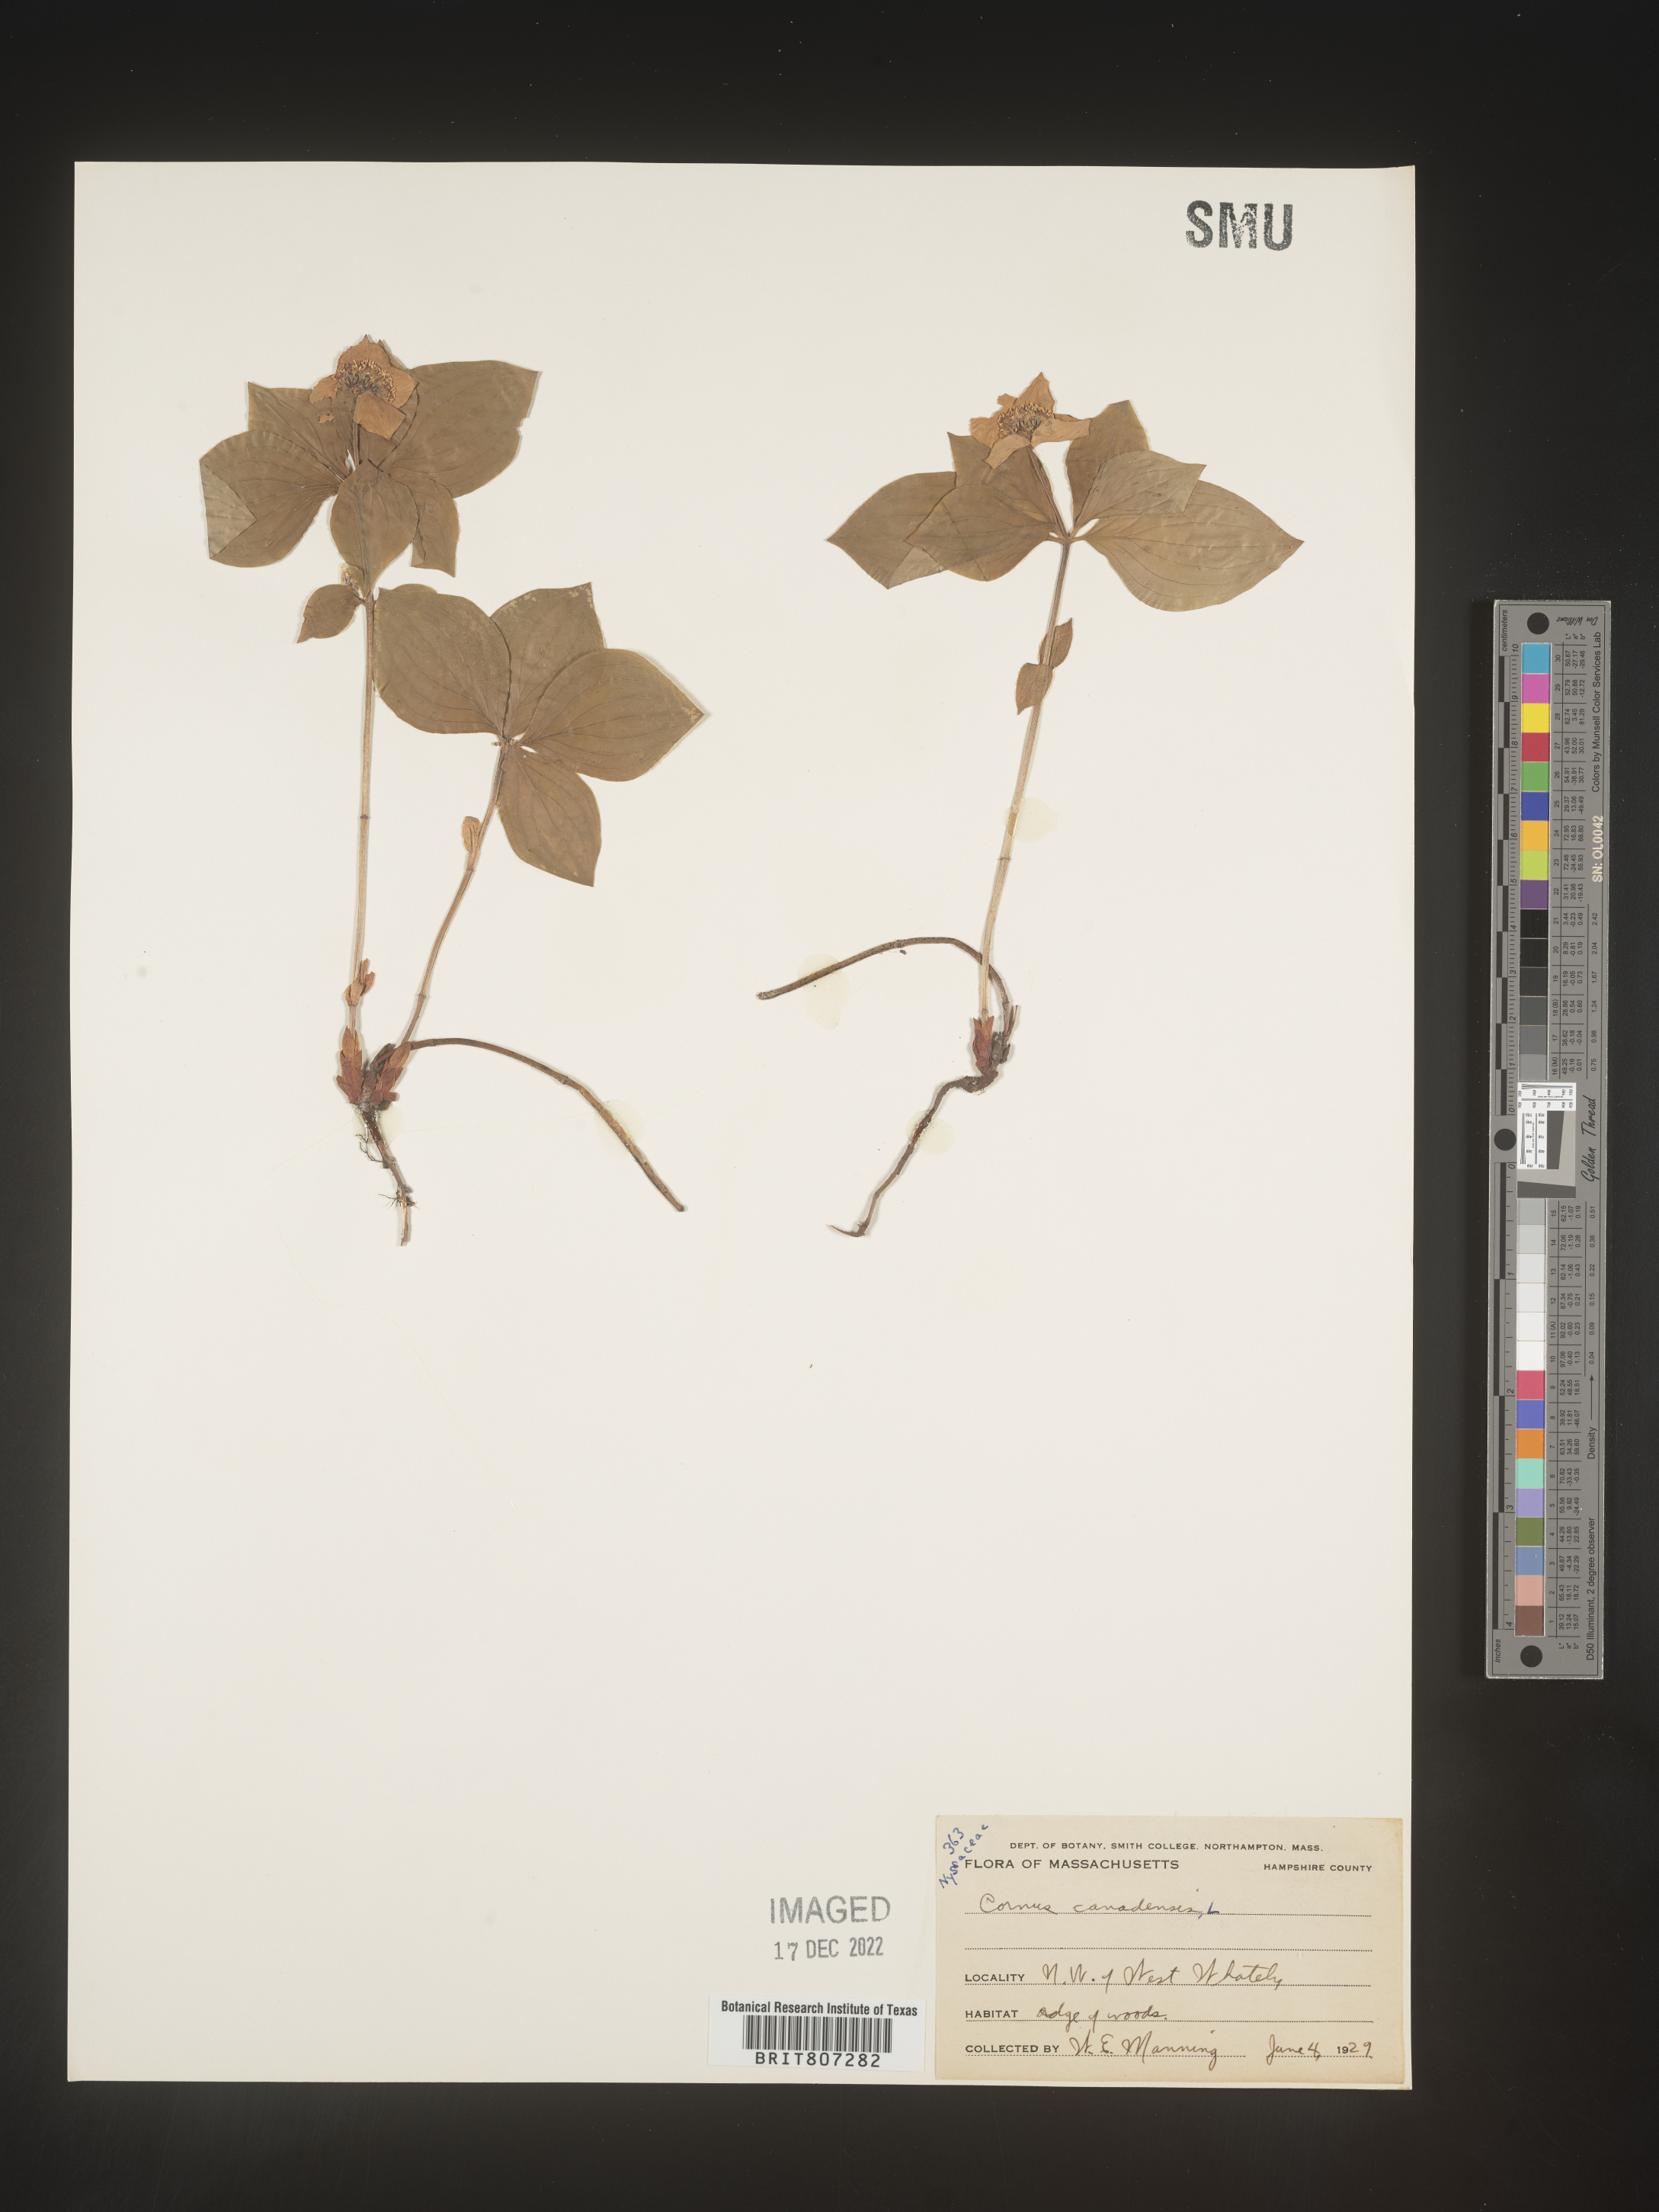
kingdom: Plantae
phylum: Tracheophyta
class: Magnoliopsida
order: Cornales
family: Cornaceae
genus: Cornus
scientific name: Cornus canadensis
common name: Creeping dogwood
